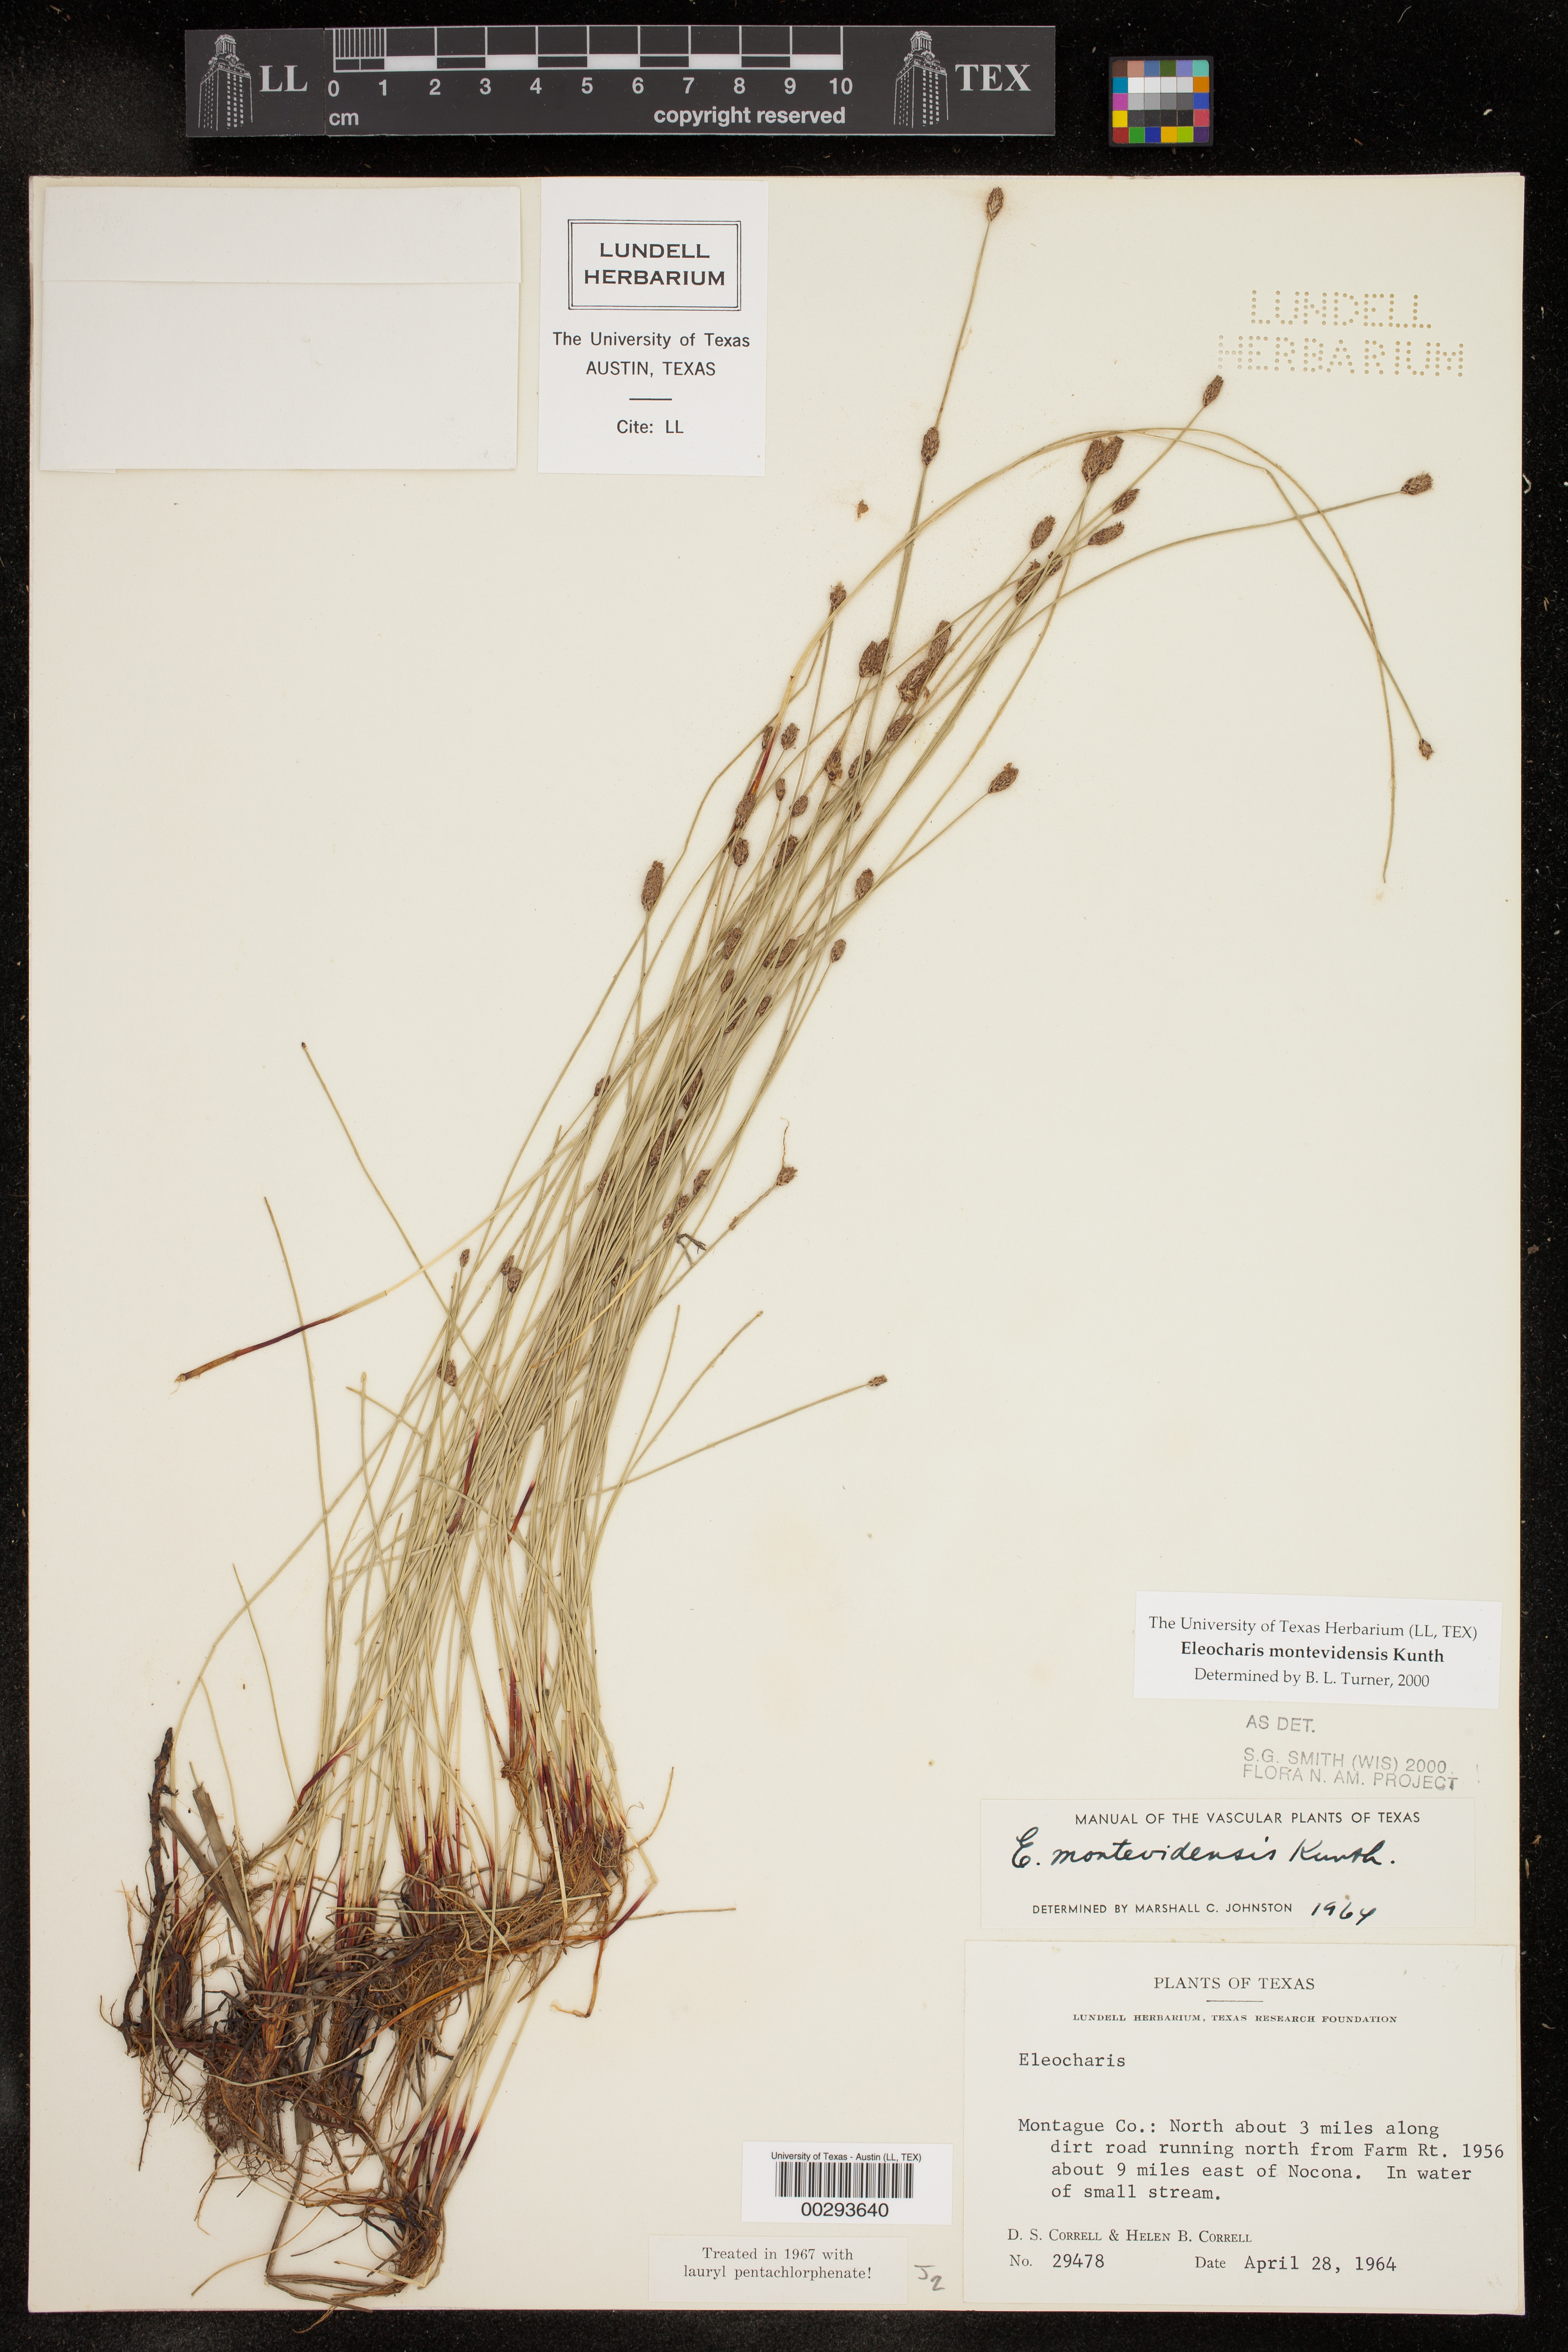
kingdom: Plantae
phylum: Tracheophyta
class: Liliopsida
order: Poales
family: Cyperaceae
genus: Eleocharis
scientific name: Eleocharis montevidensis
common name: Sand spike-rush
